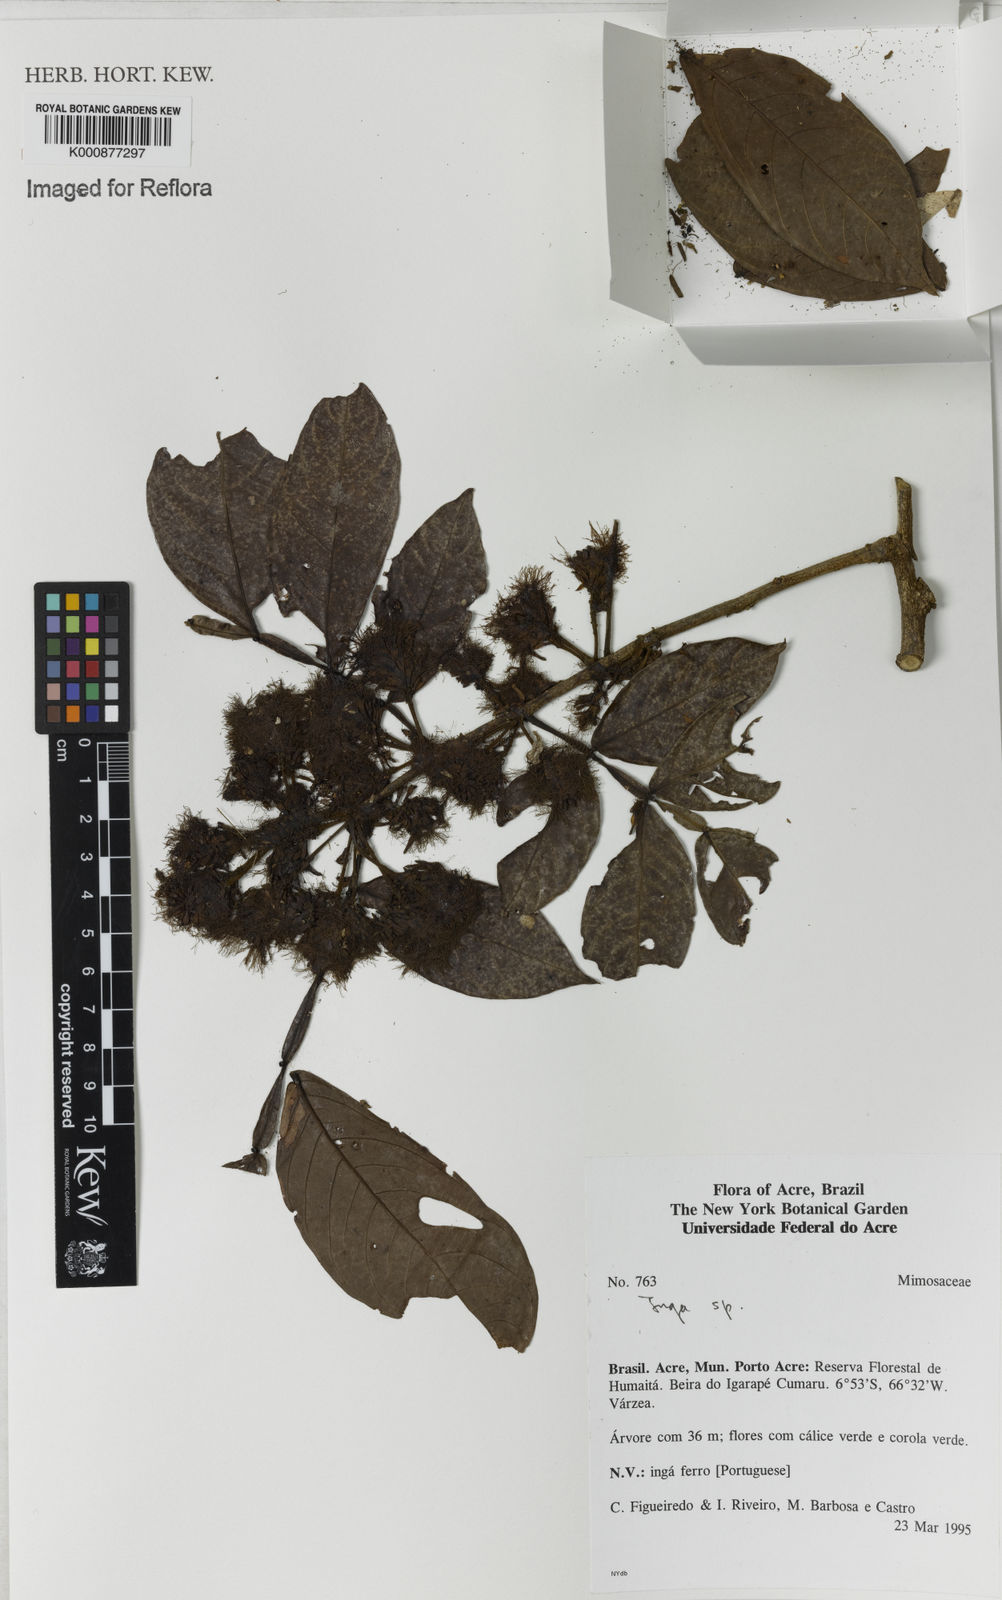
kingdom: Plantae
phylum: Tracheophyta
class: Magnoliopsida
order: Fabales
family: Fabaceae
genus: Inga
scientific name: Inga
